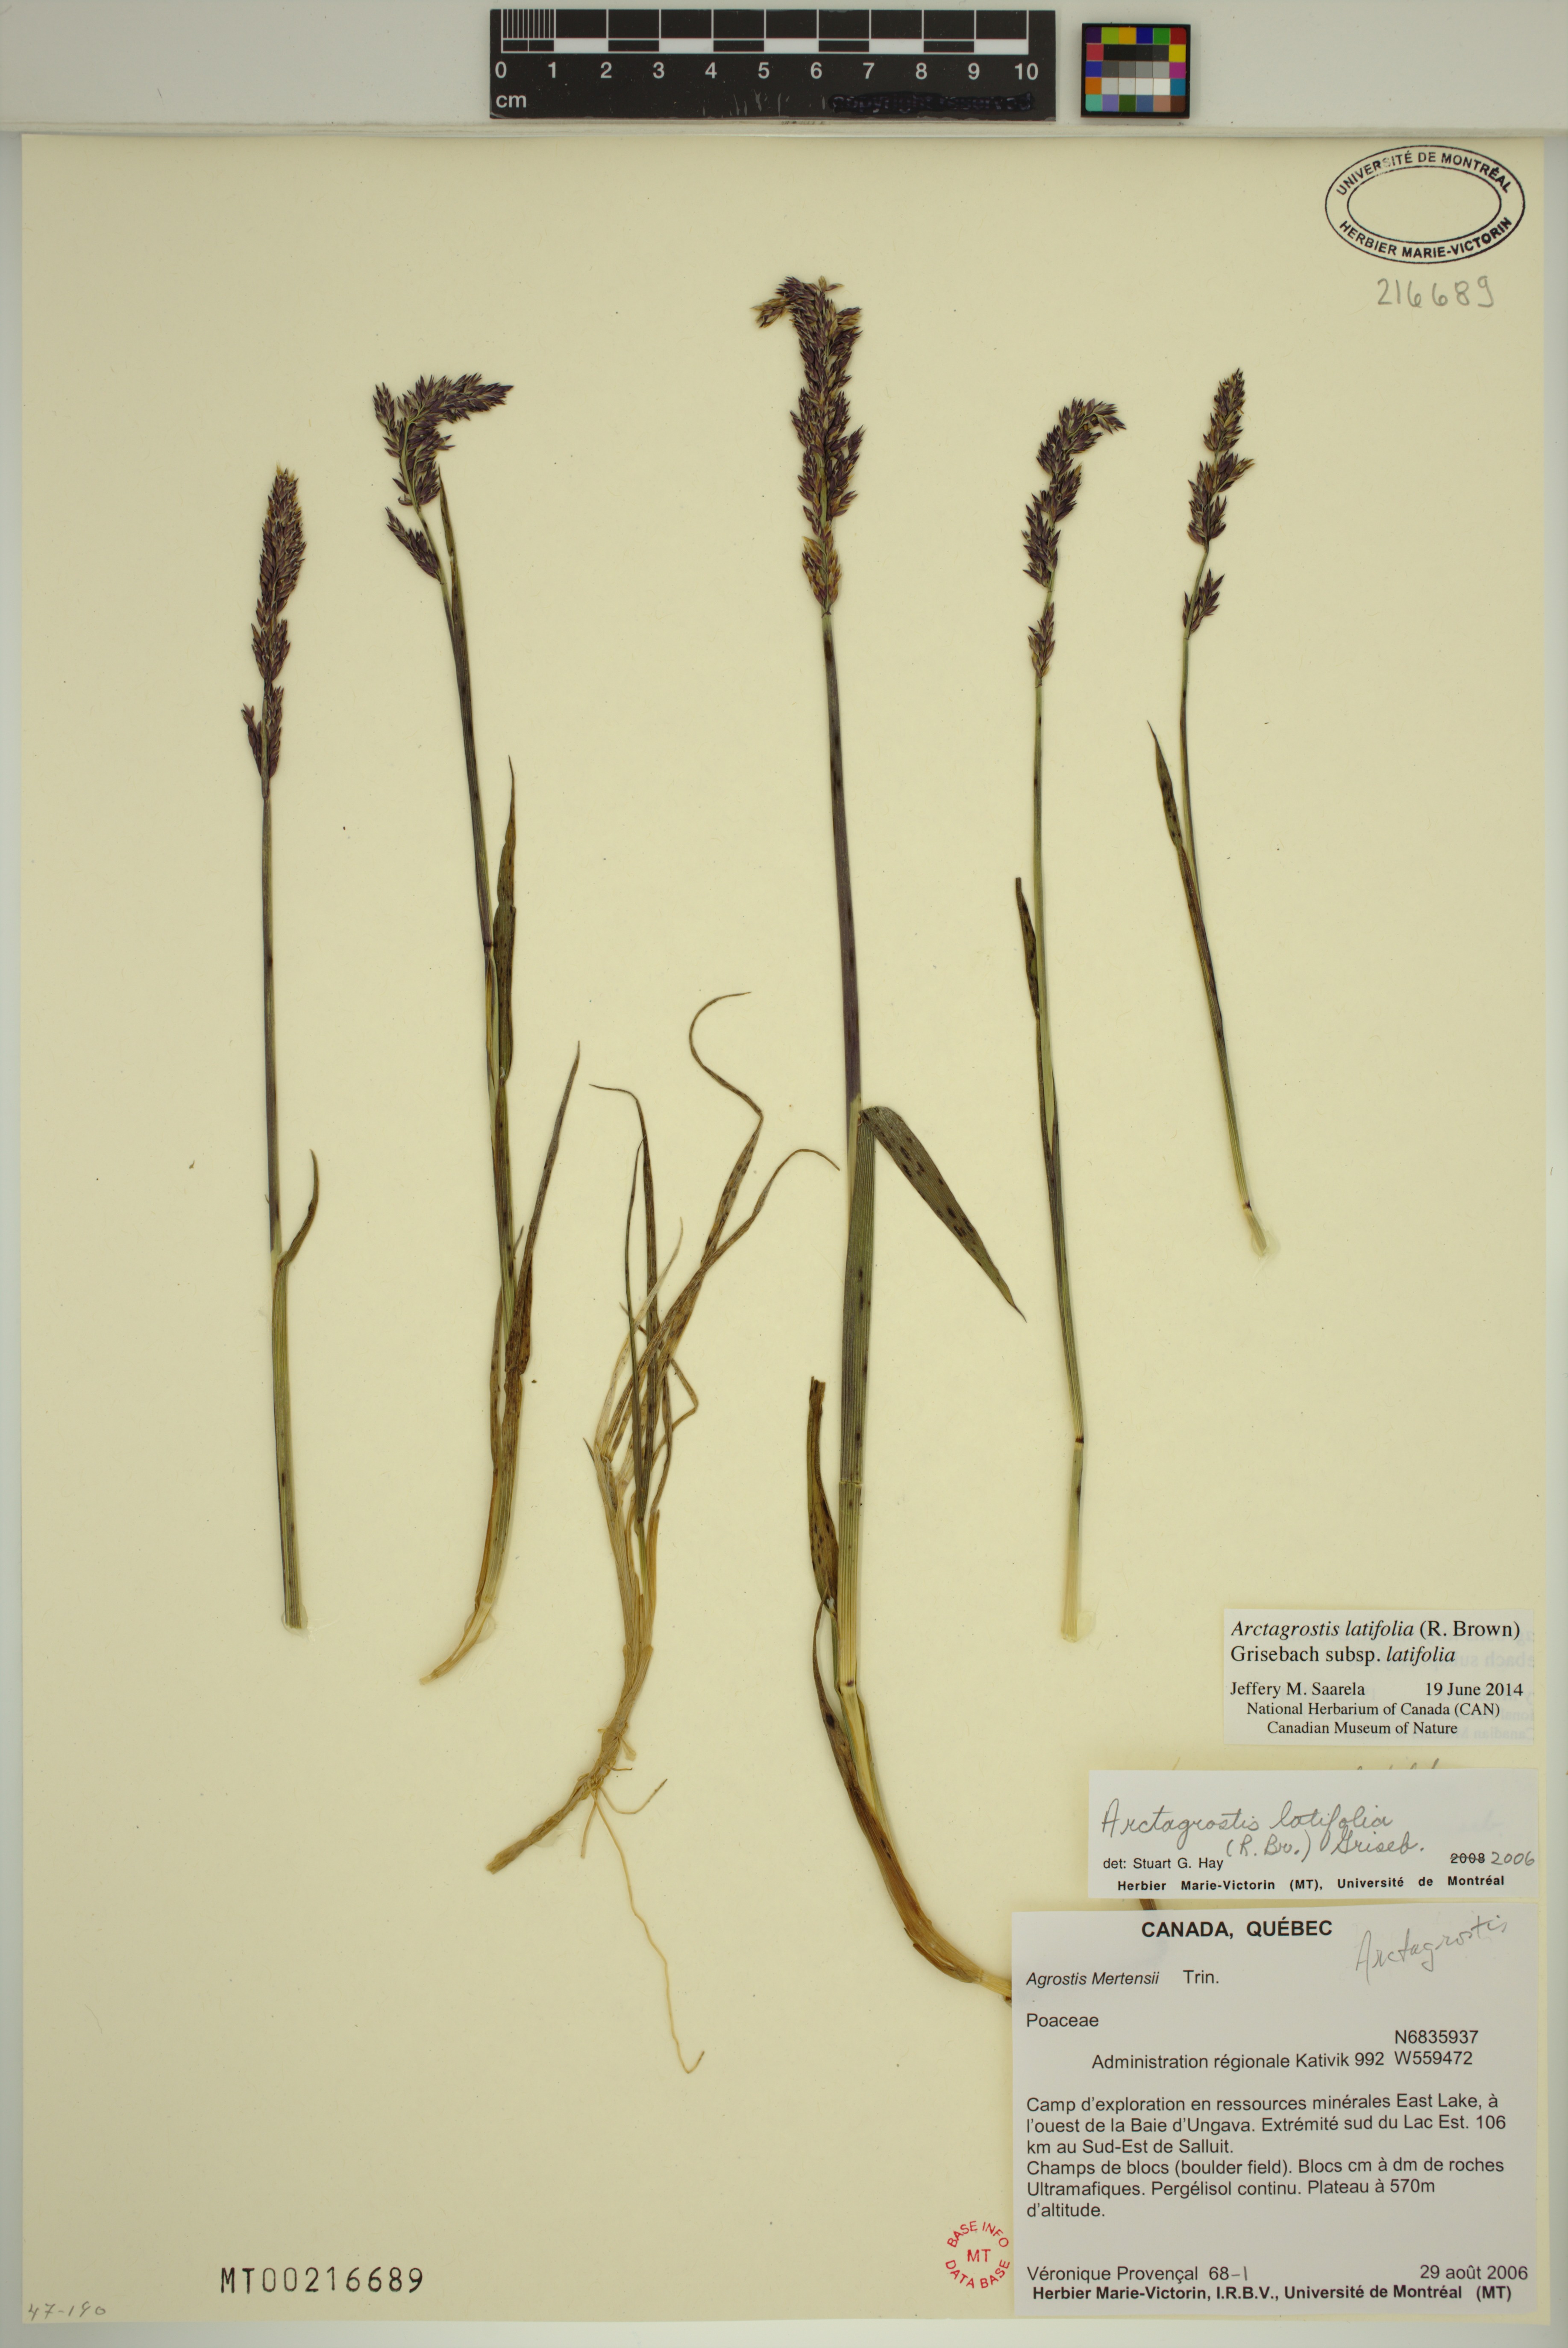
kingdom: Plantae
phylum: Tracheophyta
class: Liliopsida
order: Poales
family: Poaceae
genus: Arctagrostis
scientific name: Arctagrostis latifolia
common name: Arctic grass
